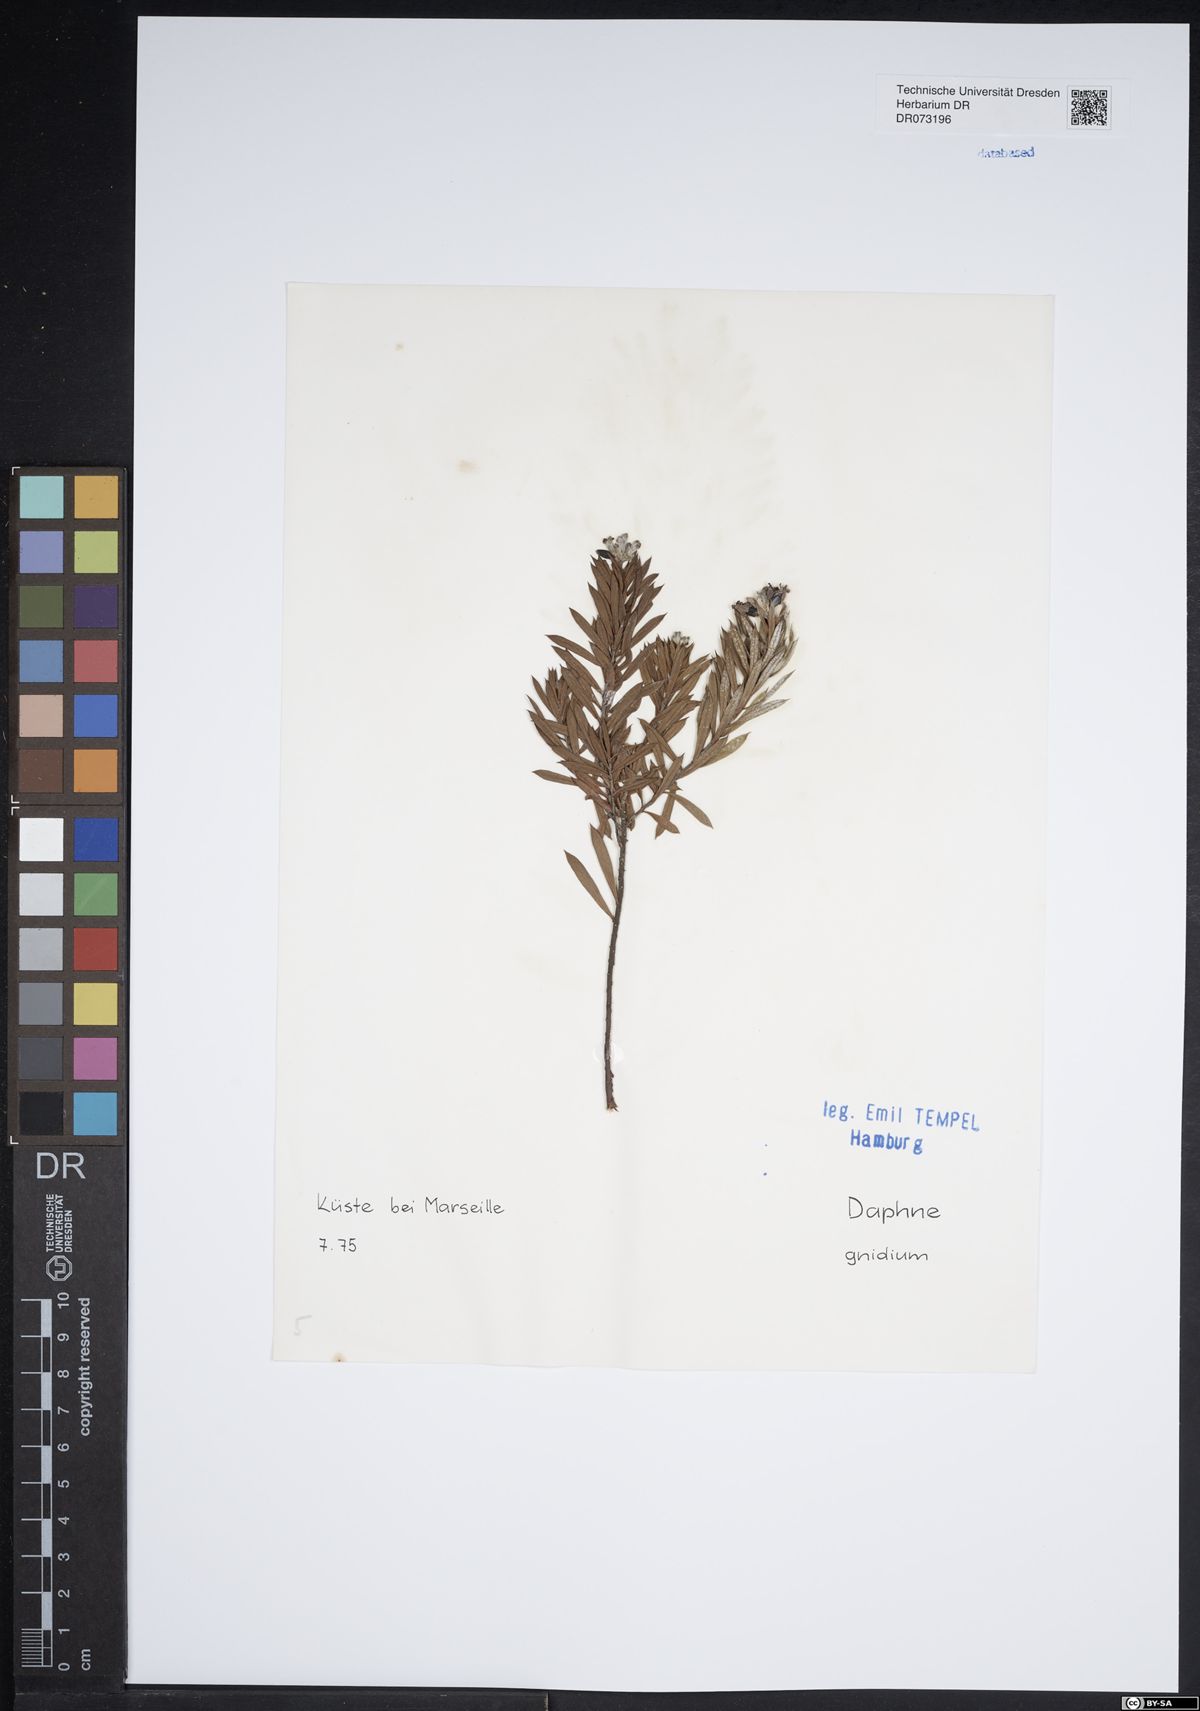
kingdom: Plantae
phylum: Tracheophyta
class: Magnoliopsida
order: Malvales
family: Thymelaeaceae
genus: Daphne
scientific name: Daphne gnidium
